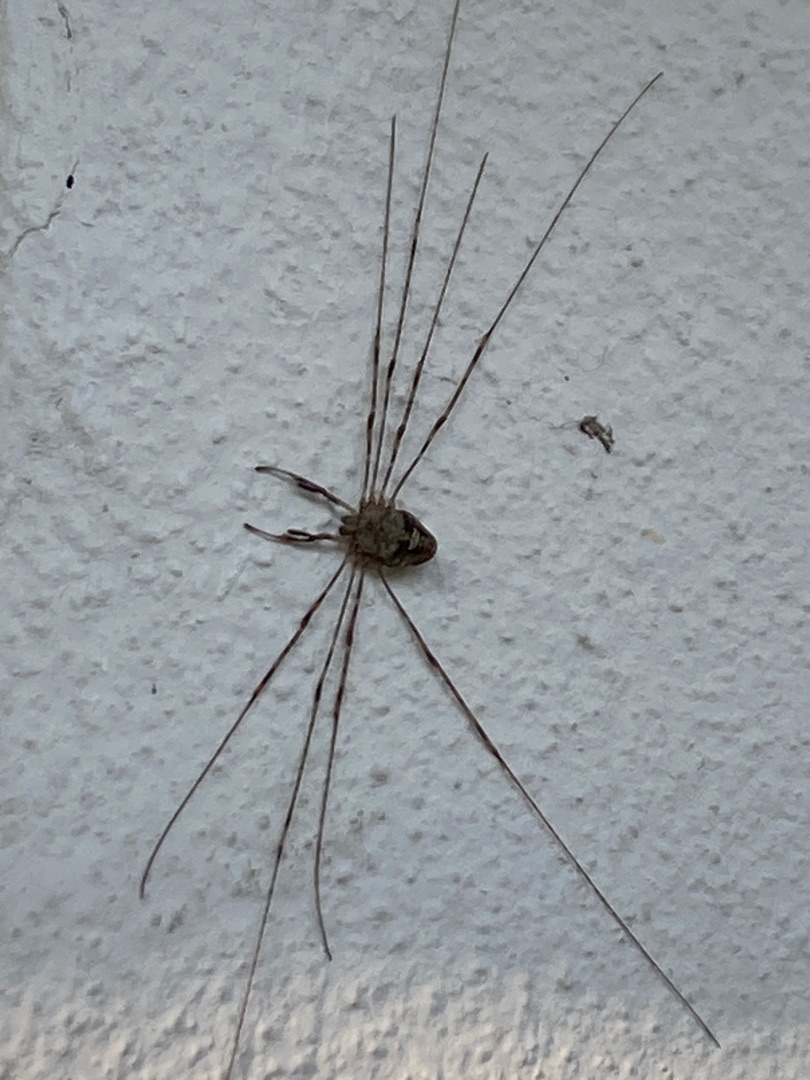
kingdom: Animalia
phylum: Arthropoda
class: Arachnida
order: Opiliones
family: Phalangiidae
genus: Dicranopalpus
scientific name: Dicranopalpus ramosus
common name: Gaffelmejer
